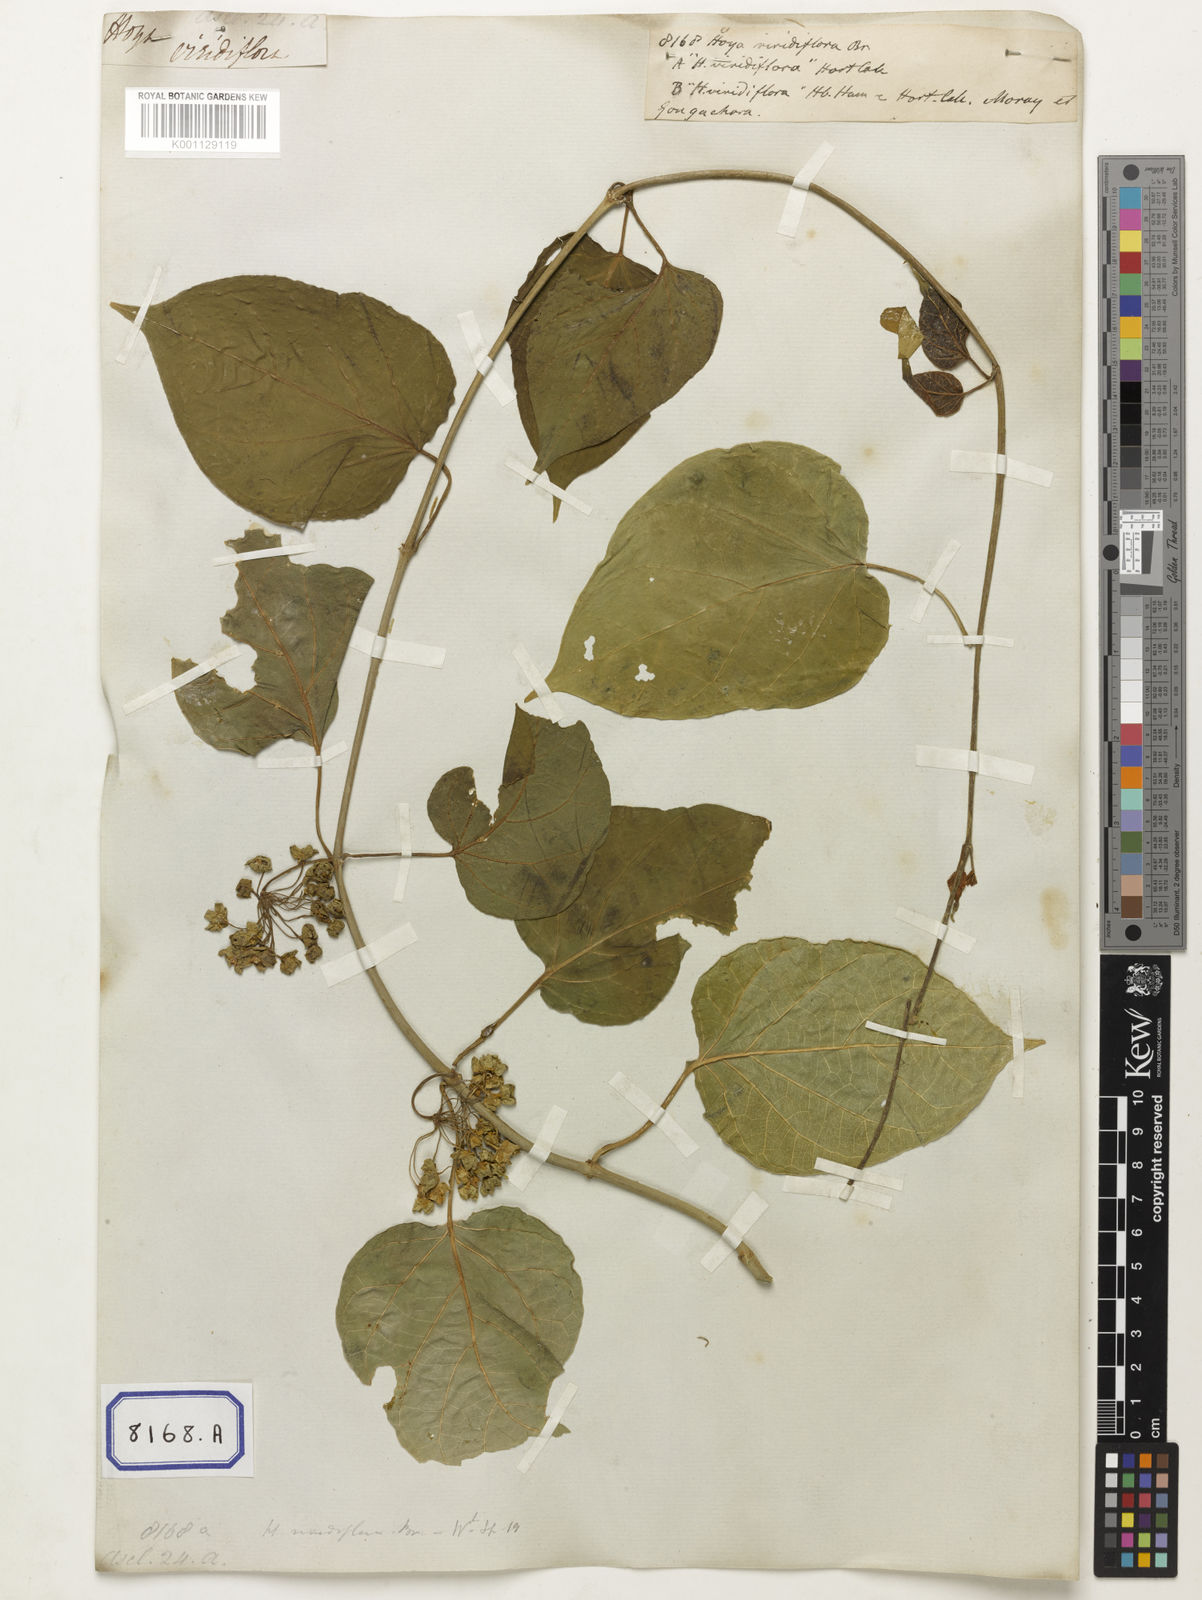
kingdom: Plantae
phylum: Tracheophyta
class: Magnoliopsida
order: Gentianales
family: Apocynaceae
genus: Stephanotis
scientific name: Stephanotis volubilis
